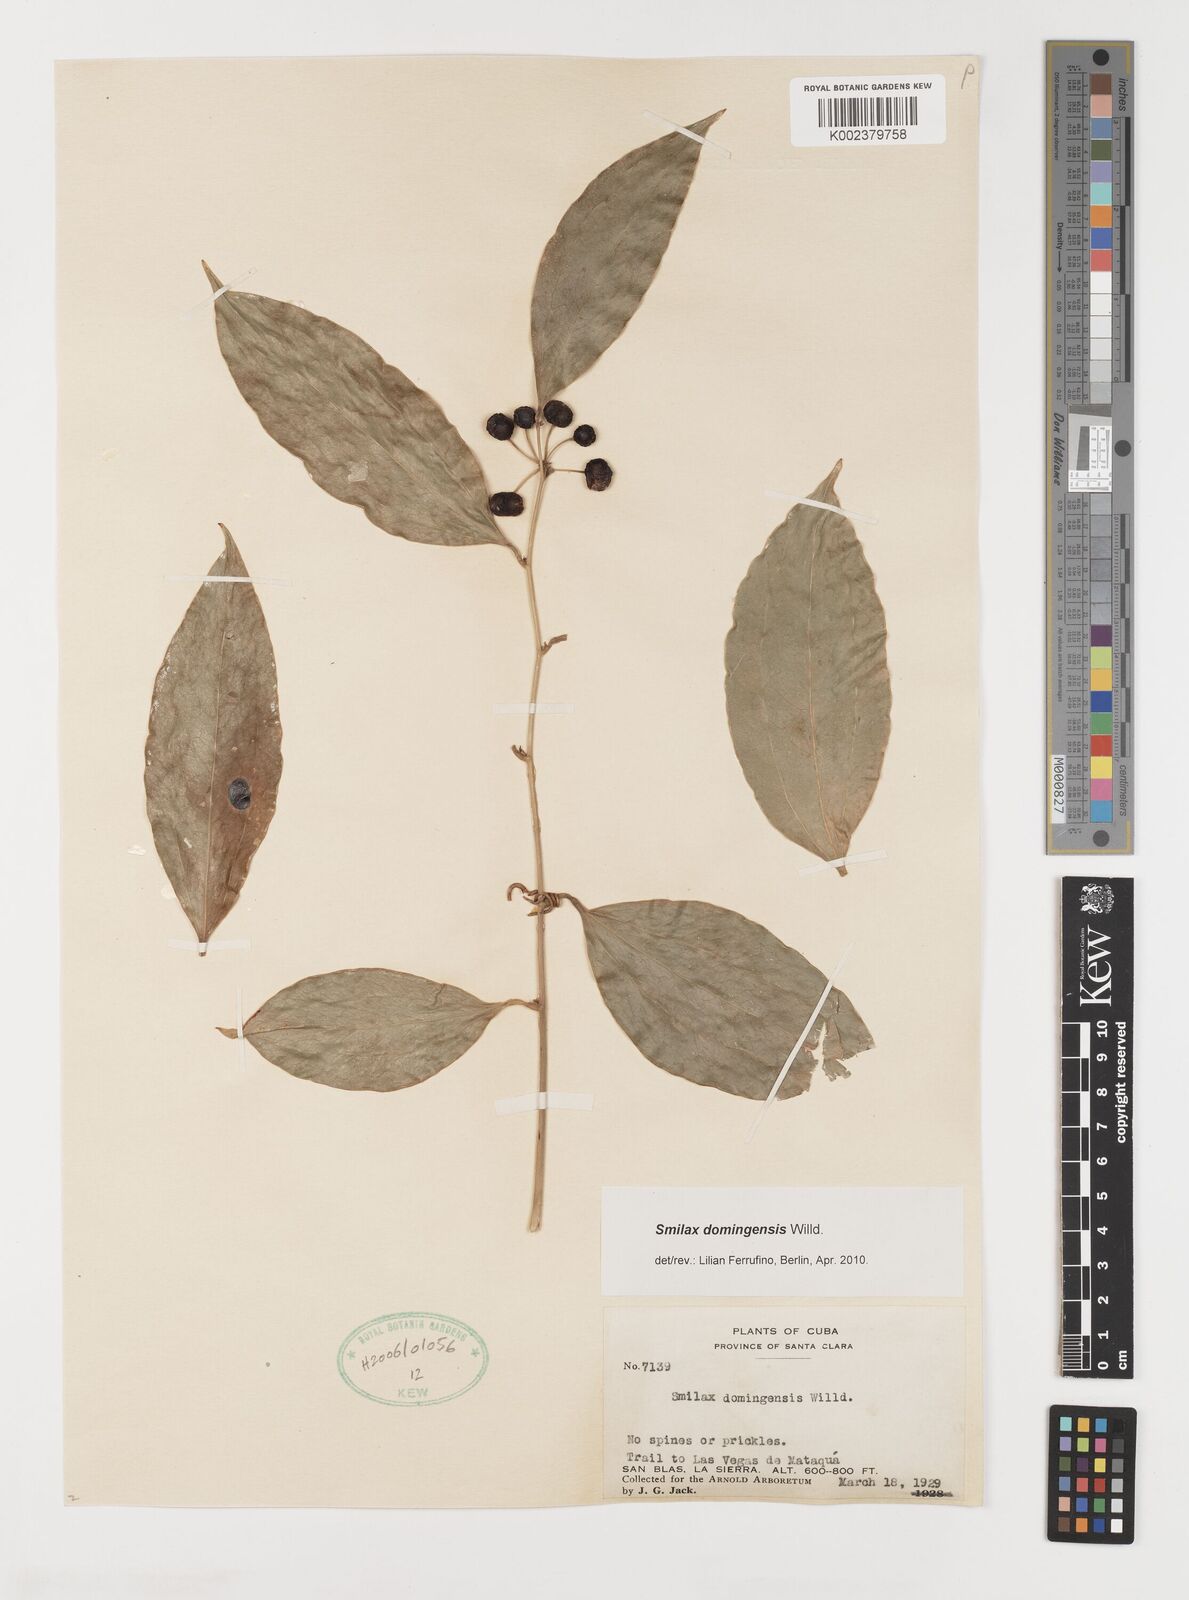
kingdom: Plantae
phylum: Tracheophyta
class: Liliopsida
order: Liliales
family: Smilacaceae
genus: Smilax
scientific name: Smilax domingensis
